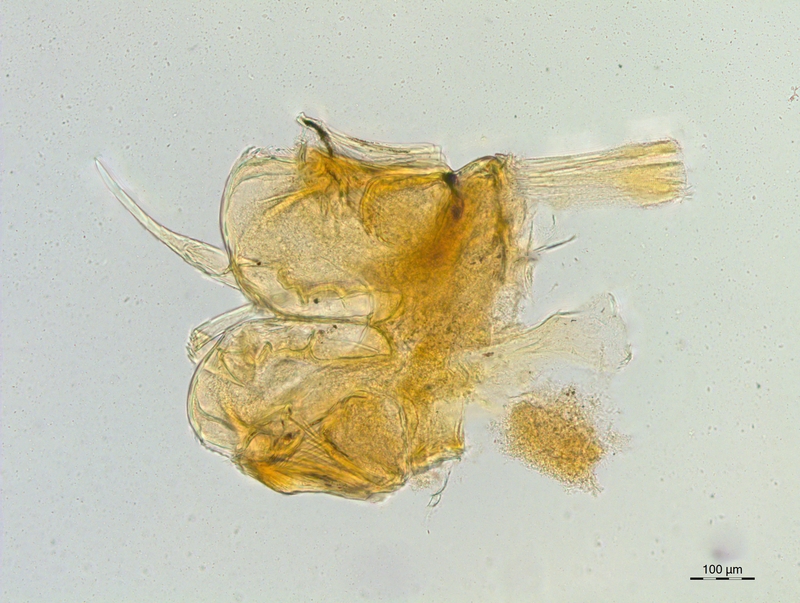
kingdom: Animalia
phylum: Arthropoda
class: Diplopoda
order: Chordeumatida
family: Craspedosomatidae
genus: Craspedosoma
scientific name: Craspedosoma furculigerum
